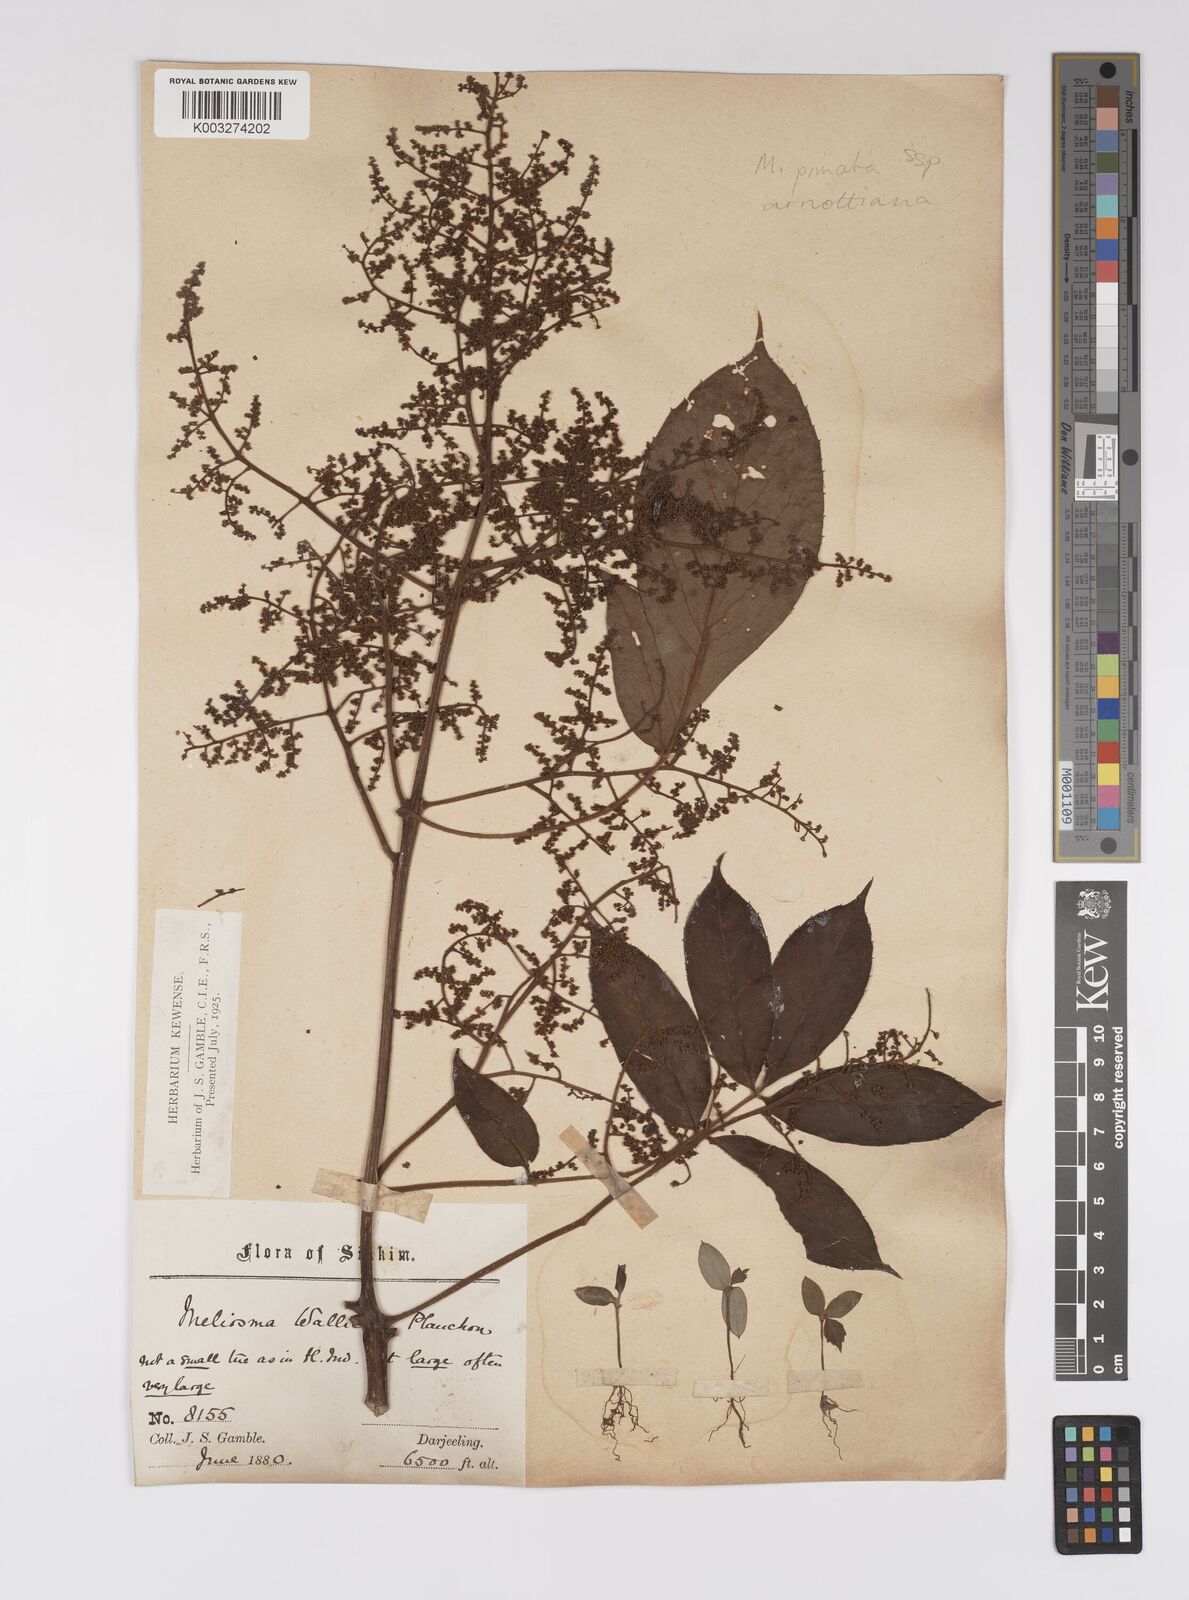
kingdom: Plantae
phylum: Tracheophyta
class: Magnoliopsida
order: Proteales
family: Sabiaceae
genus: Meliosma
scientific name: Meliosma rhoifolia
